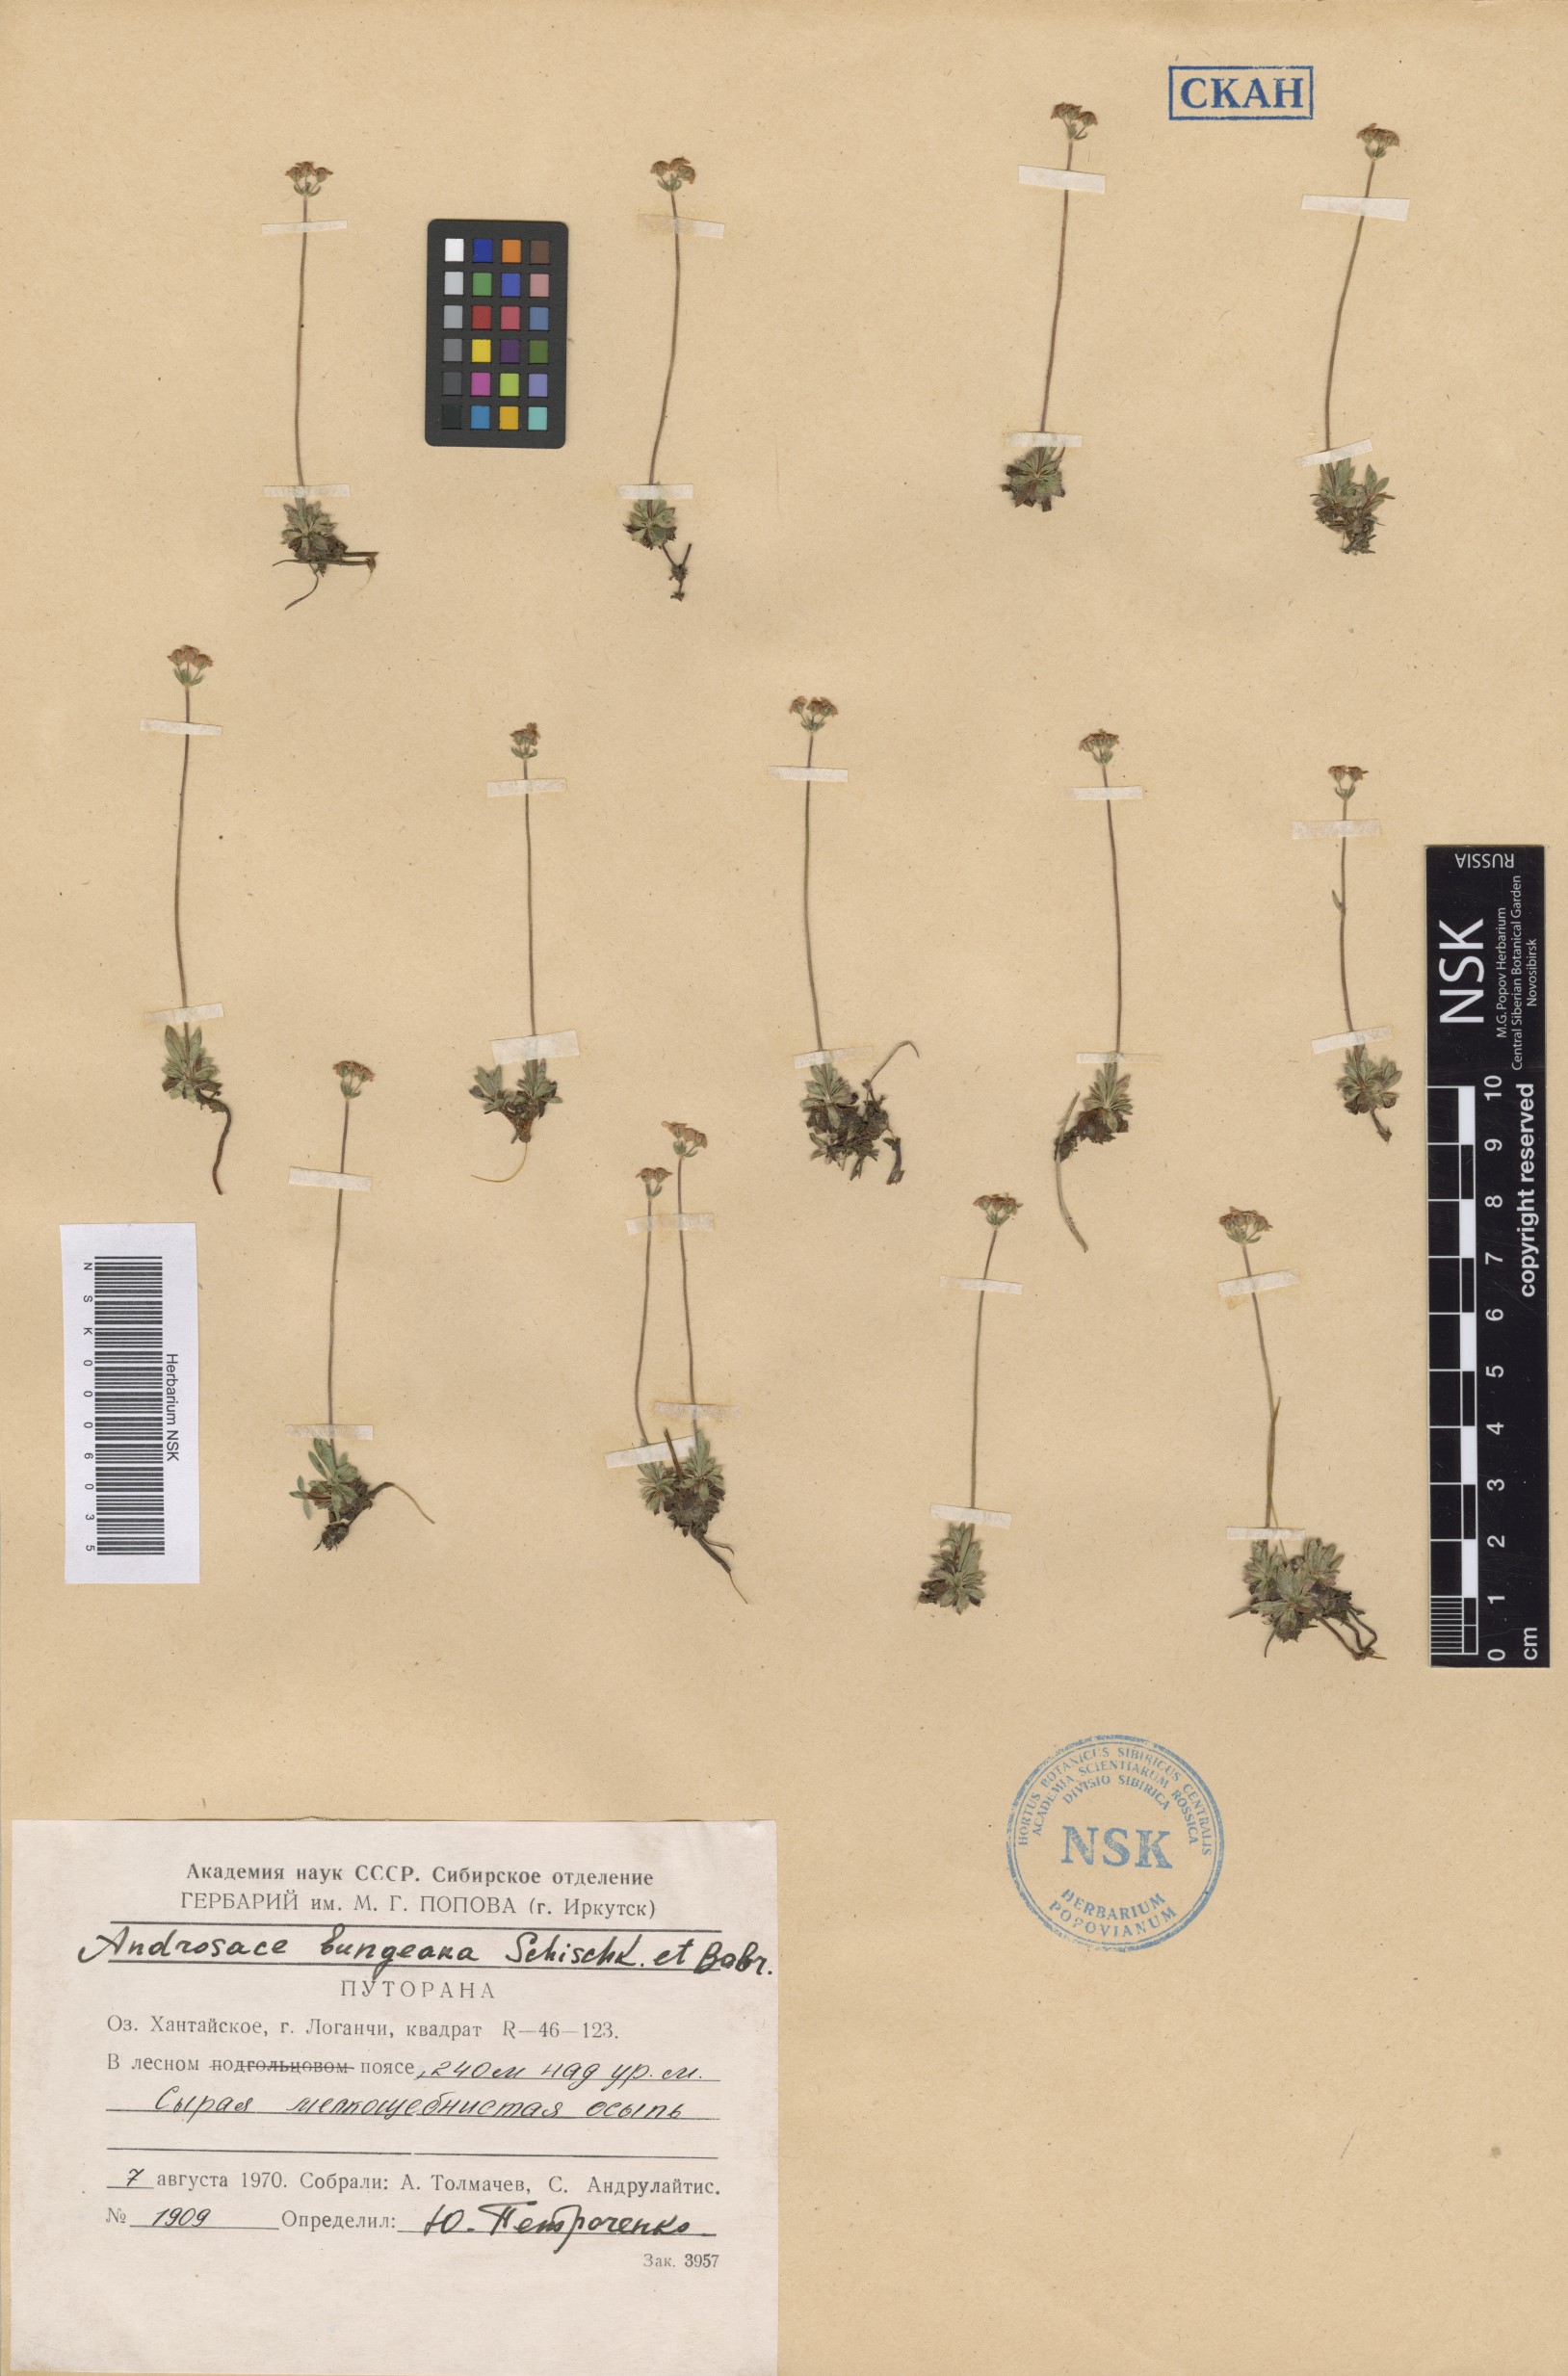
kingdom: Plantae
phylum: Tracheophyta
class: Magnoliopsida
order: Ericales
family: Primulaceae
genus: Androsace
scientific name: Androsace bungeana
